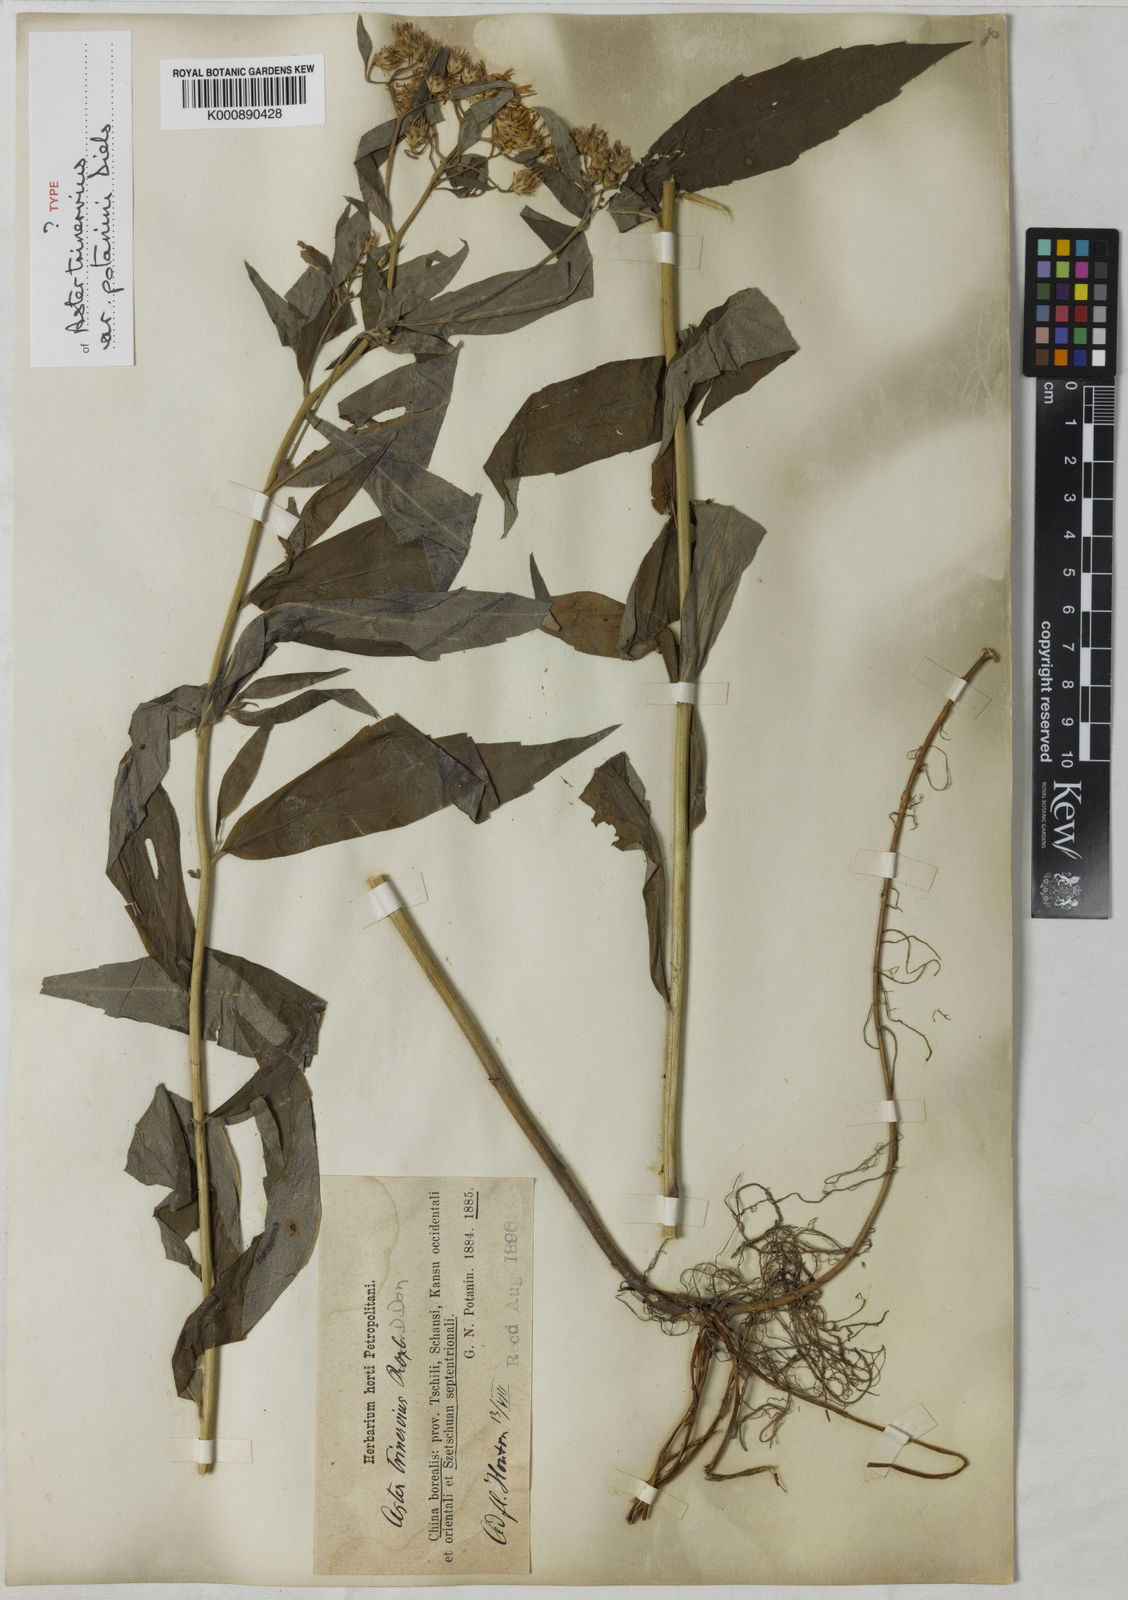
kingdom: Plantae
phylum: Tracheophyta
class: Magnoliopsida
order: Asterales
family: Asteraceae
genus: Aster
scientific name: Aster ageratoides
